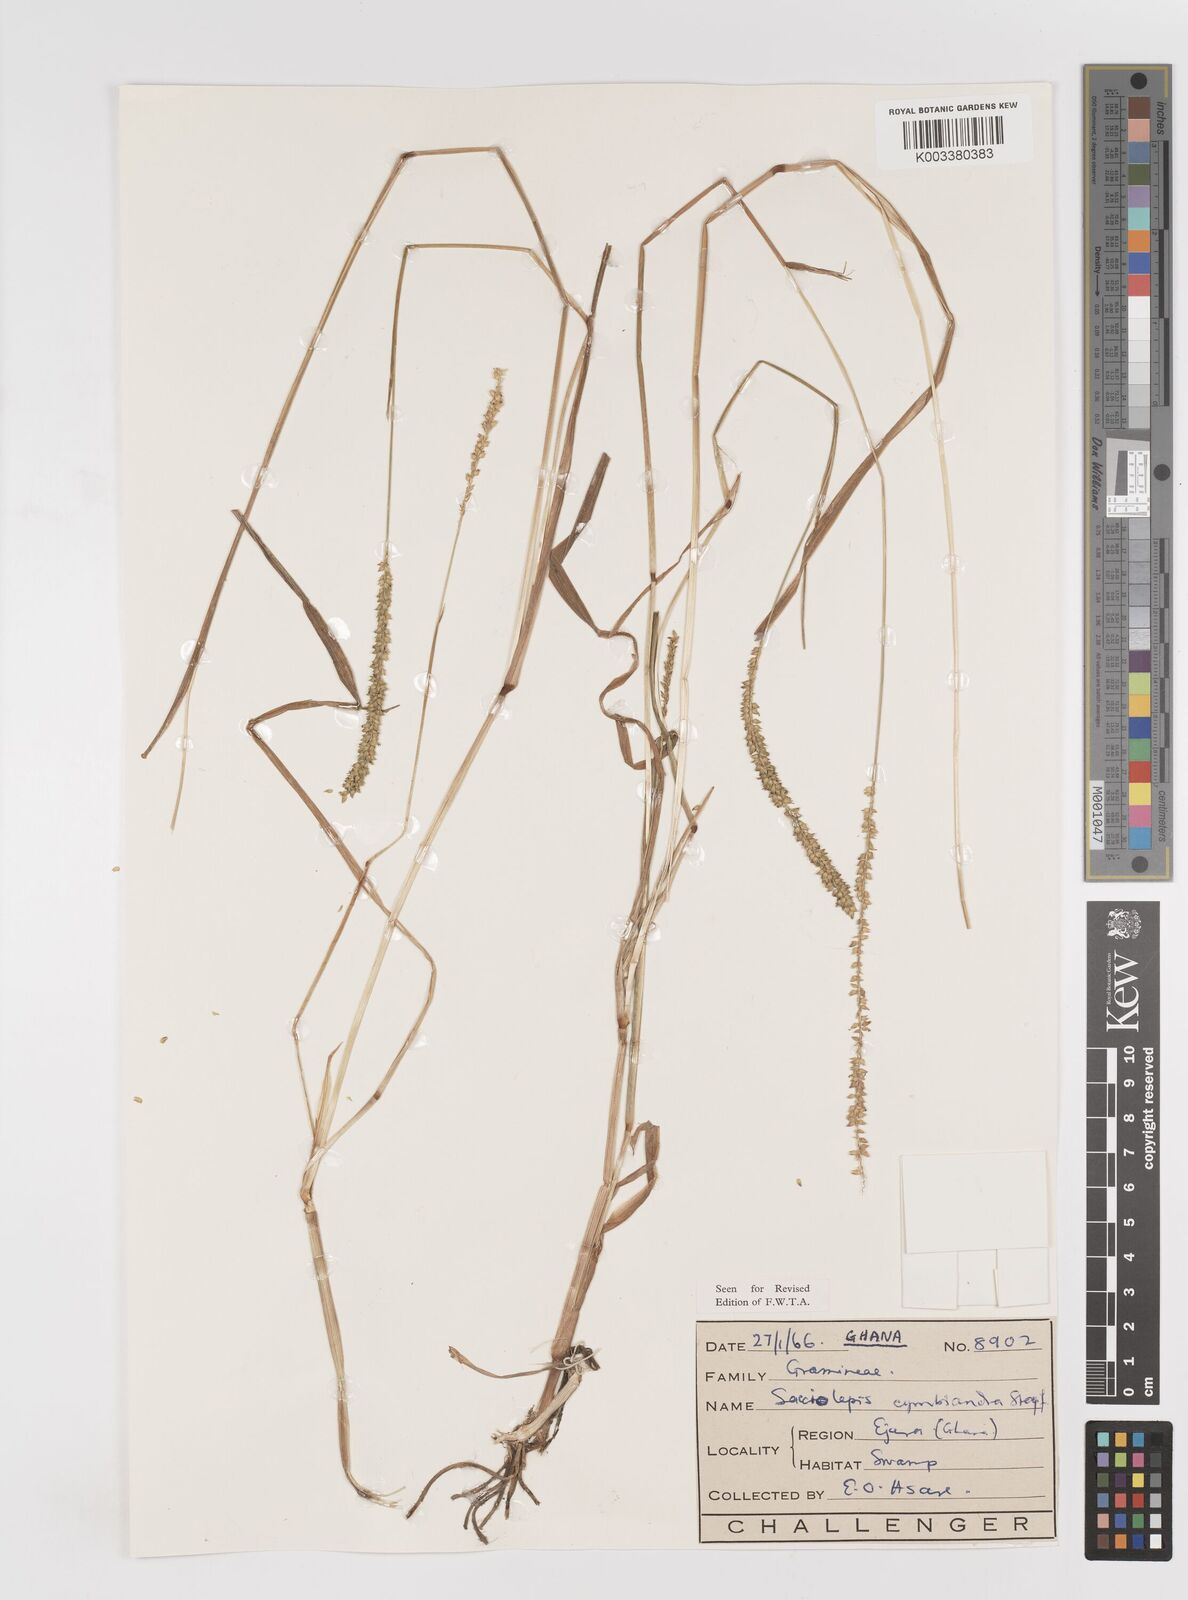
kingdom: Plantae
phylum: Tracheophyta
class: Liliopsida
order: Poales
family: Poaceae
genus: Sacciolepis
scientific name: Sacciolepis cymbiandra
